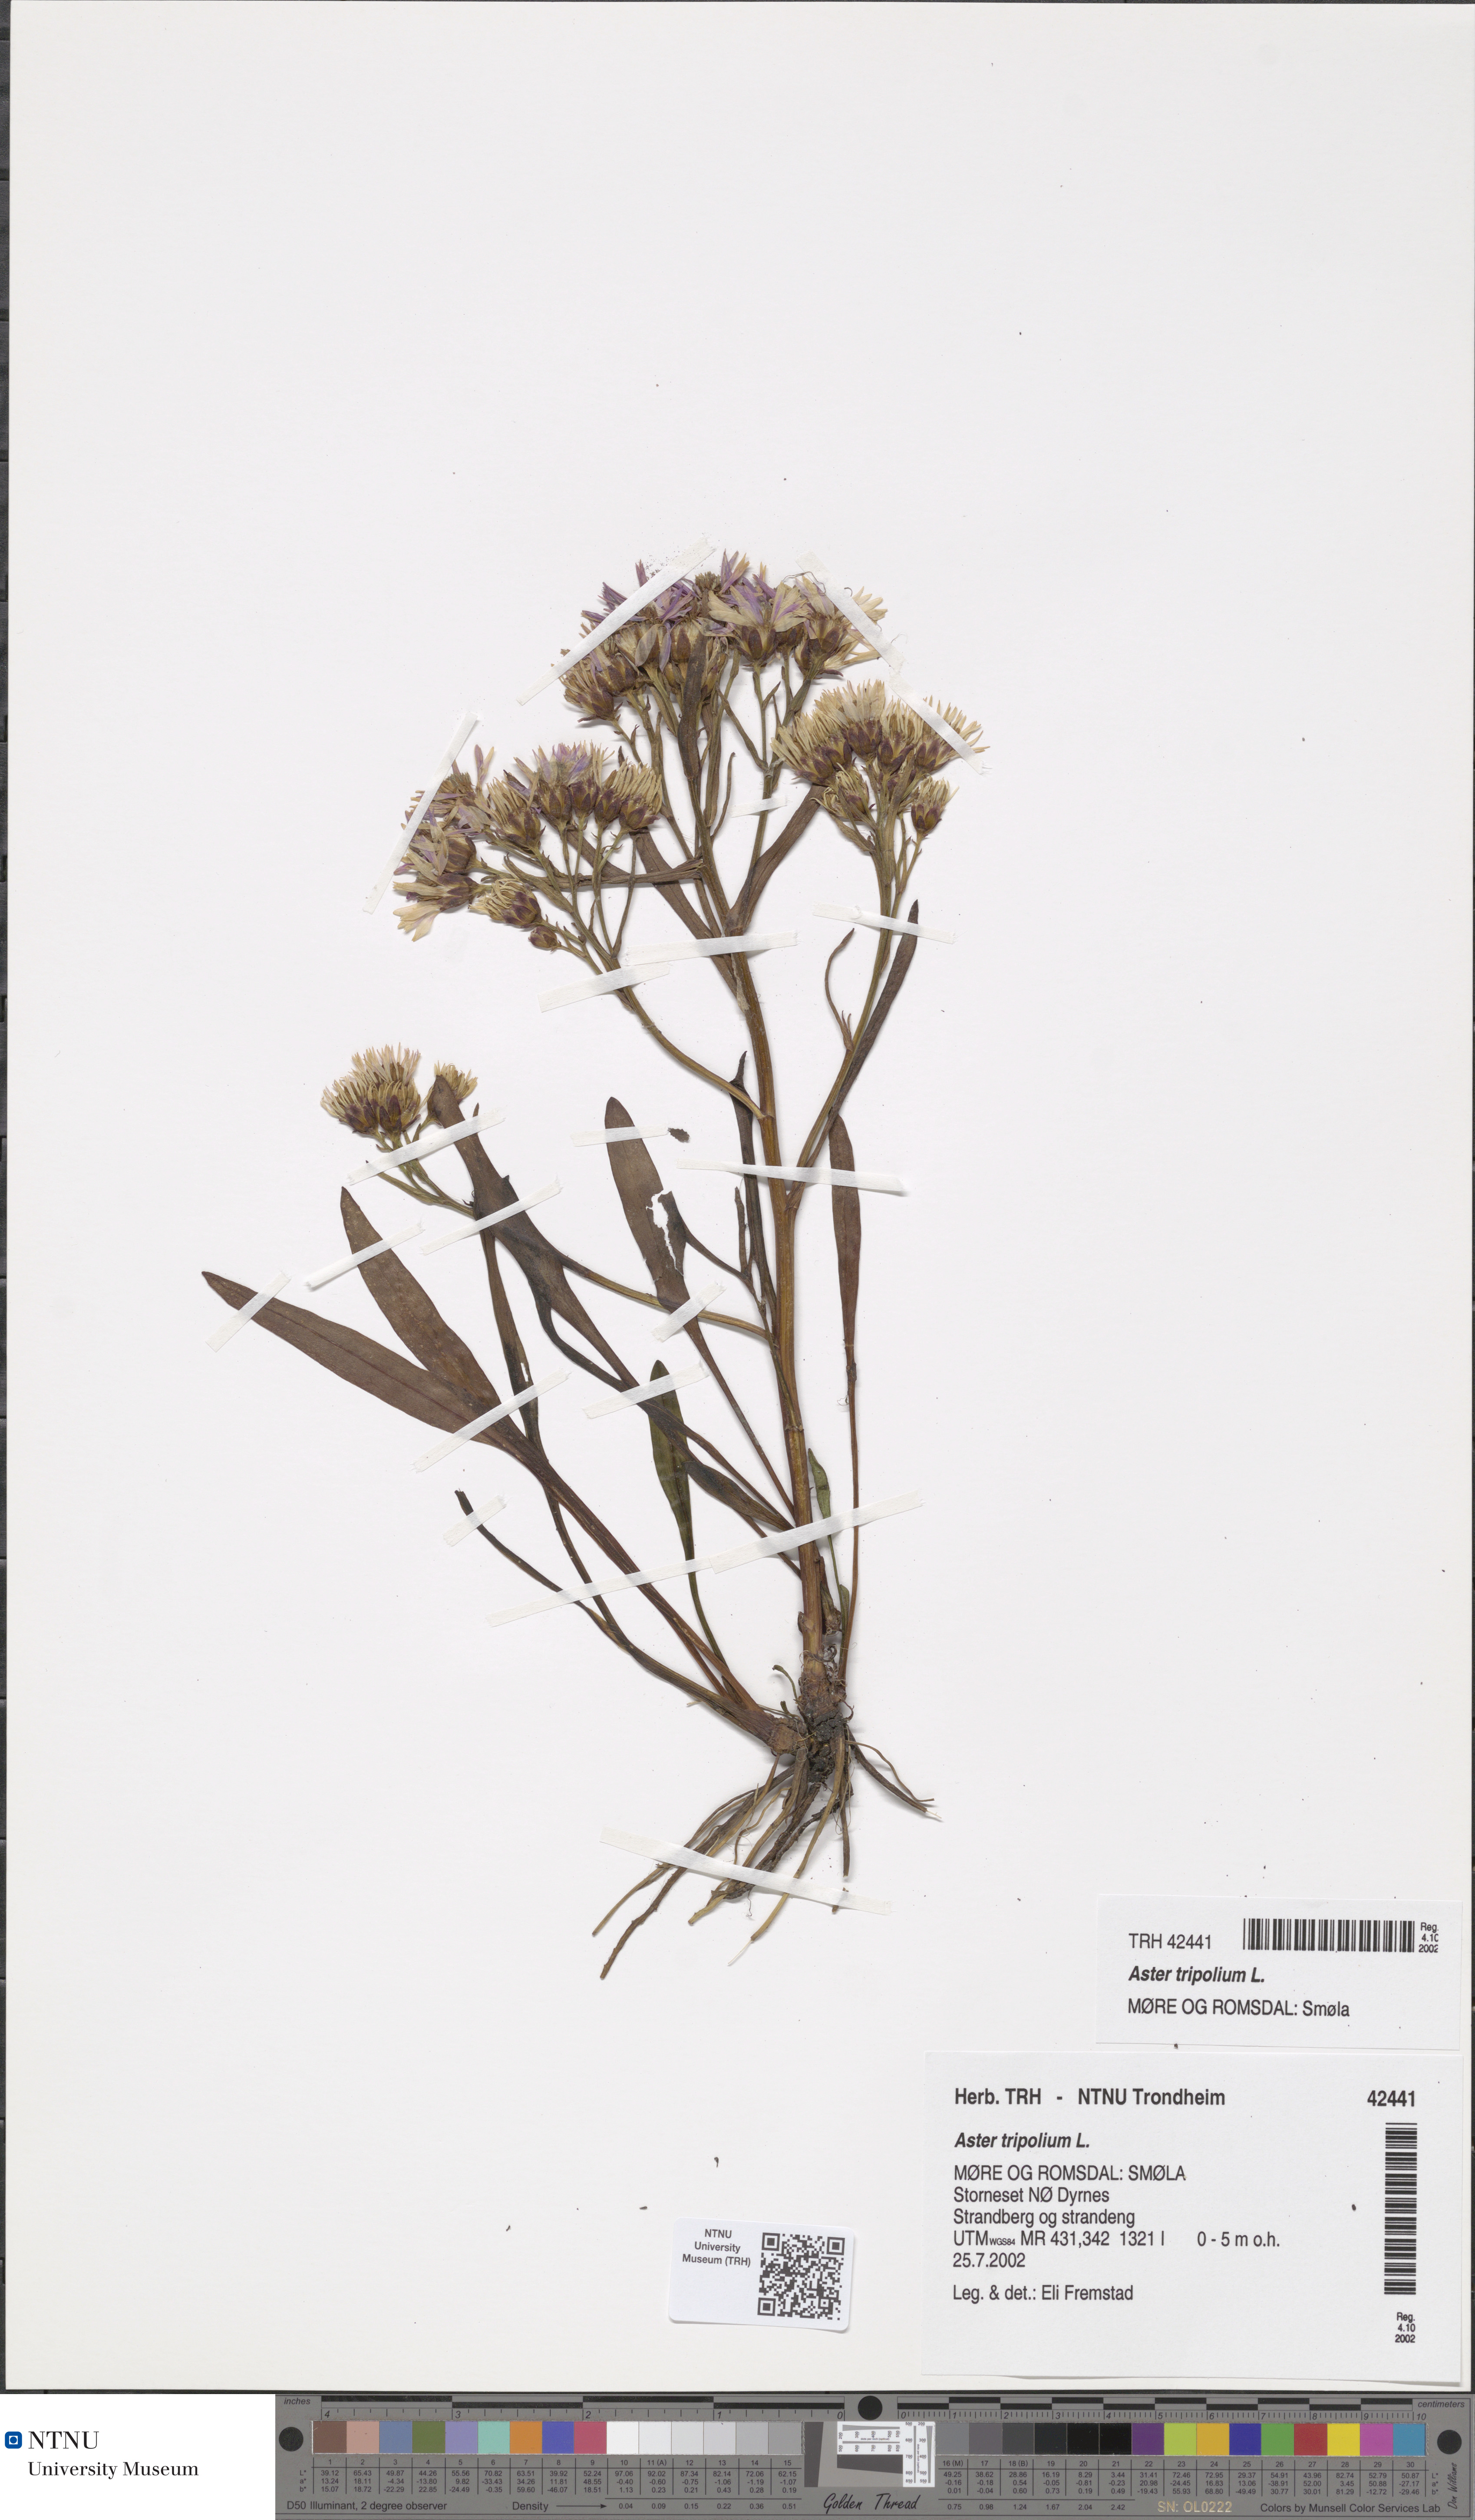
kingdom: Plantae
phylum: Tracheophyta
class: Magnoliopsida
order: Asterales
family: Asteraceae
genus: Tripolium
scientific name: Tripolium pannonicum
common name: Sea aster
